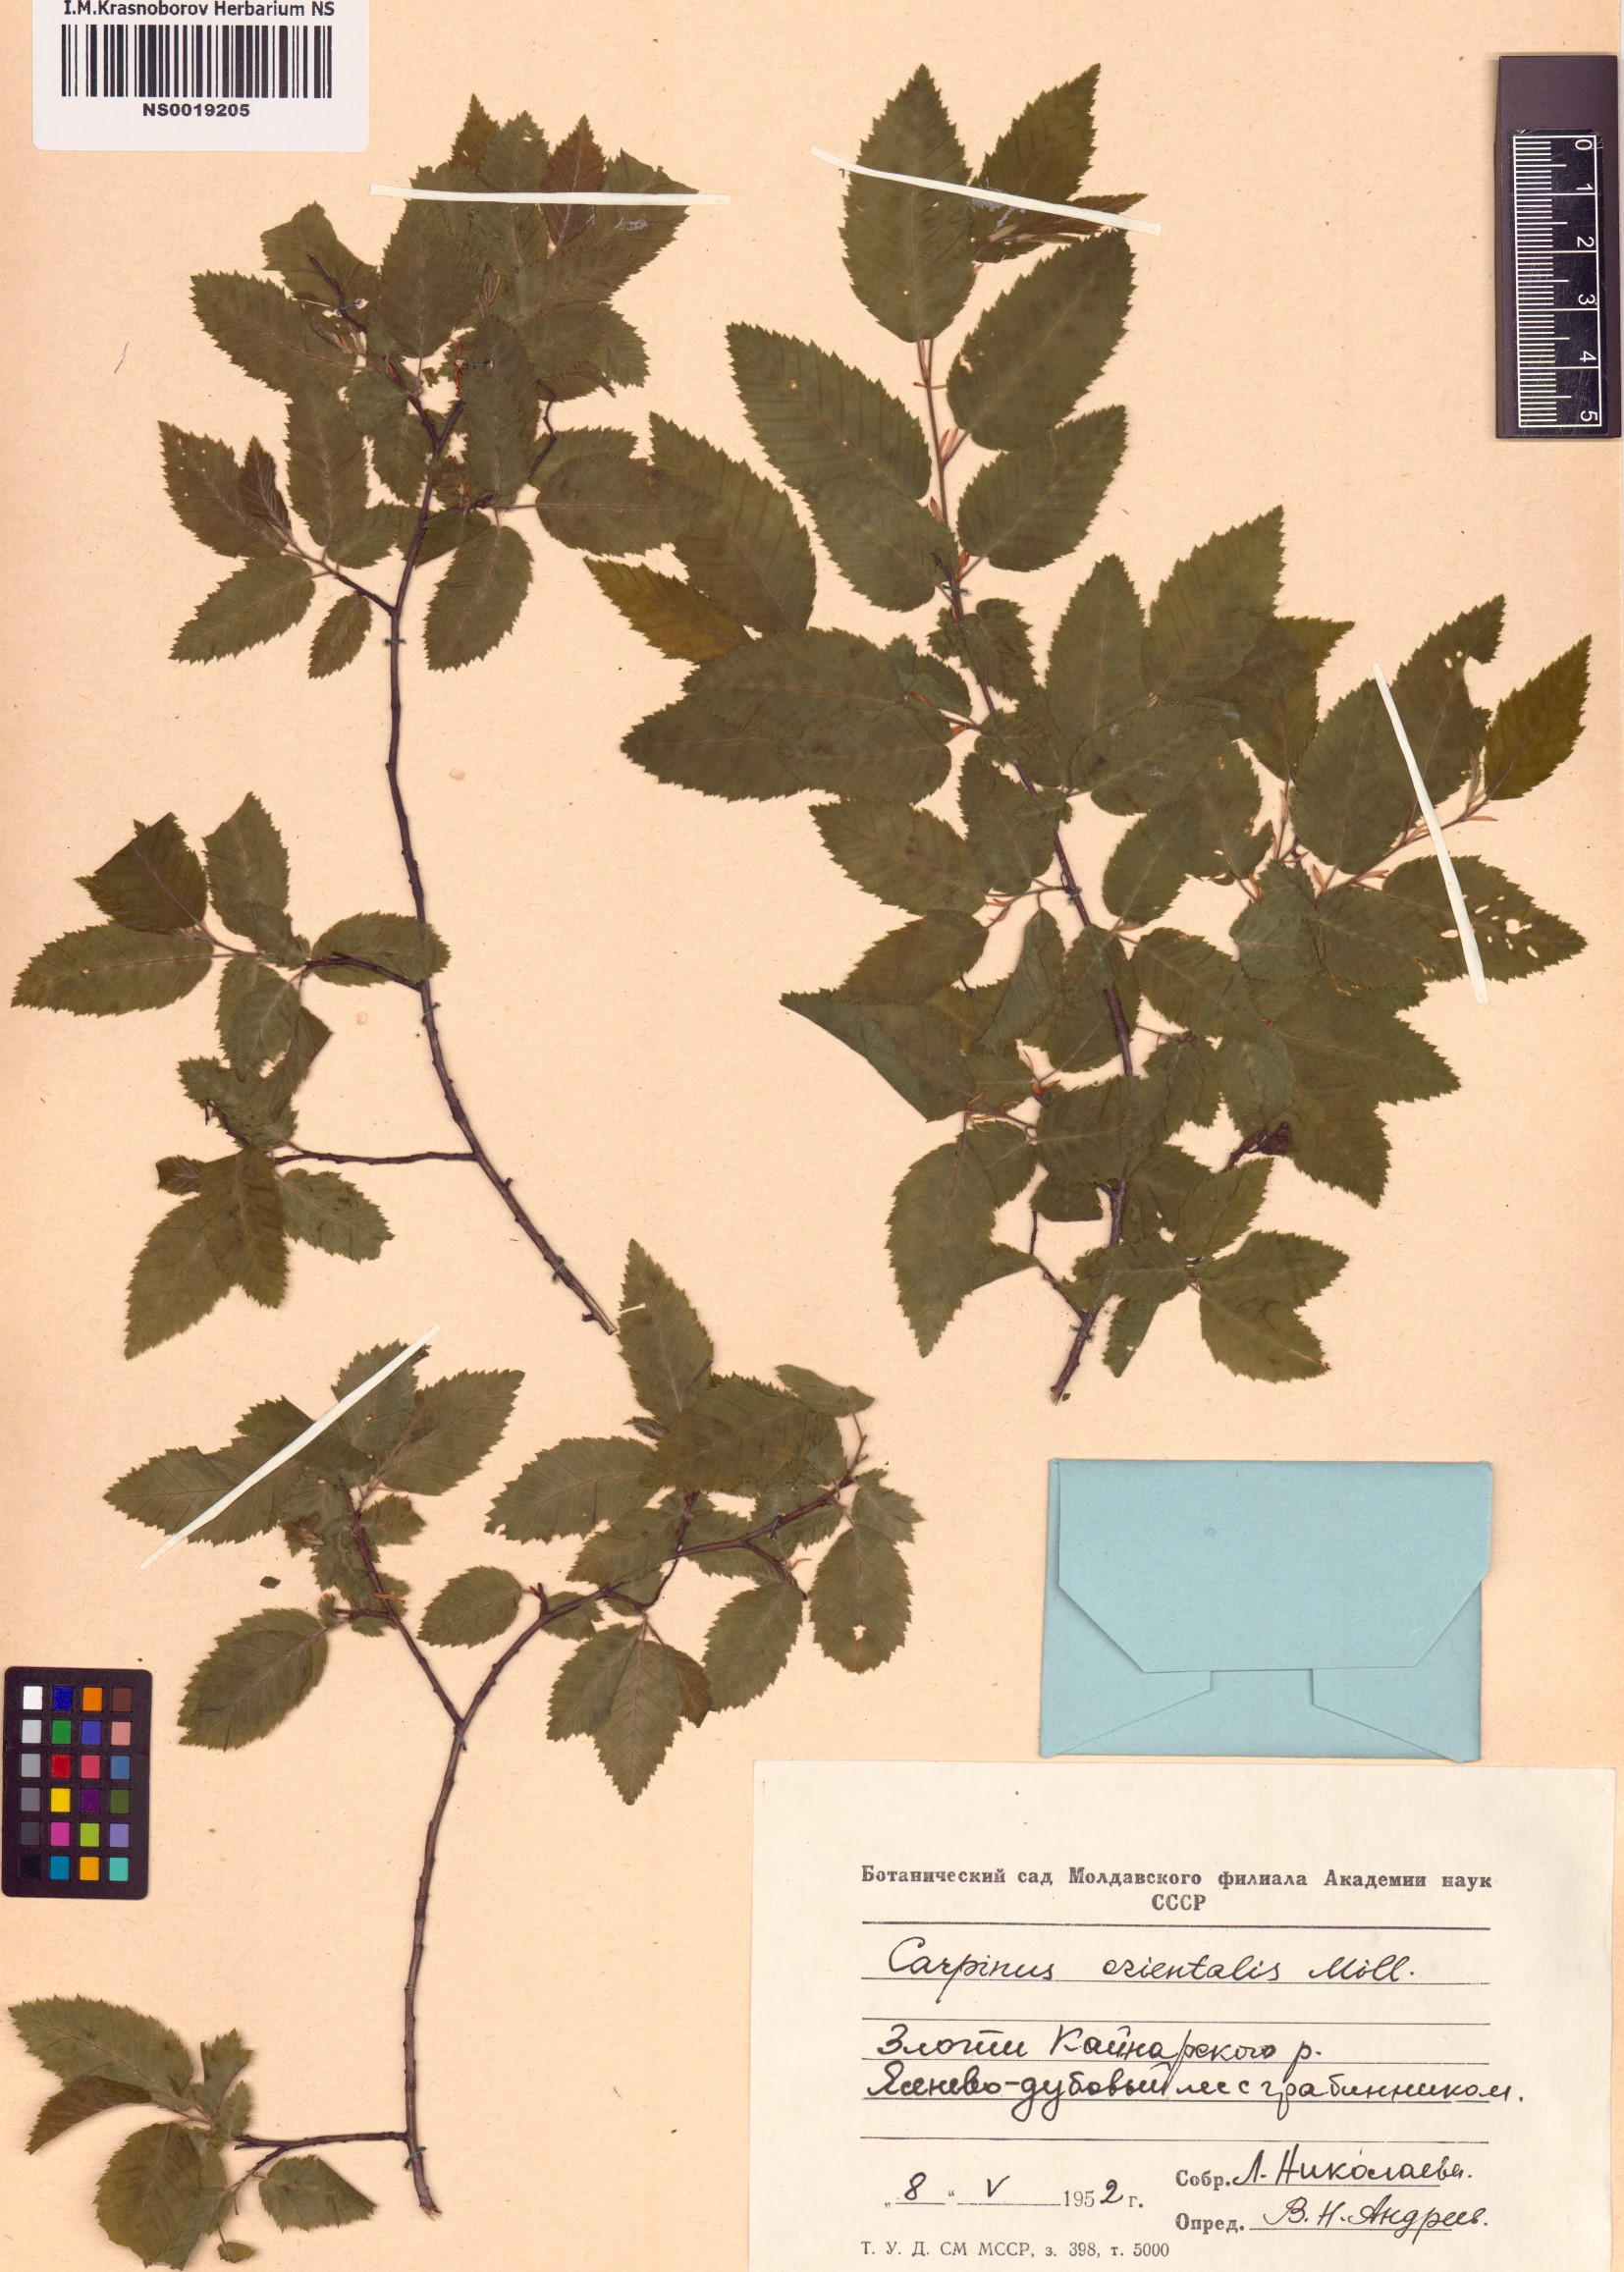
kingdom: Plantae
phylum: Tracheophyta
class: Magnoliopsida
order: Fagales
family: Betulaceae
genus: Carpinus
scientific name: Carpinus orientalis
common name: Eastern hornbeam
